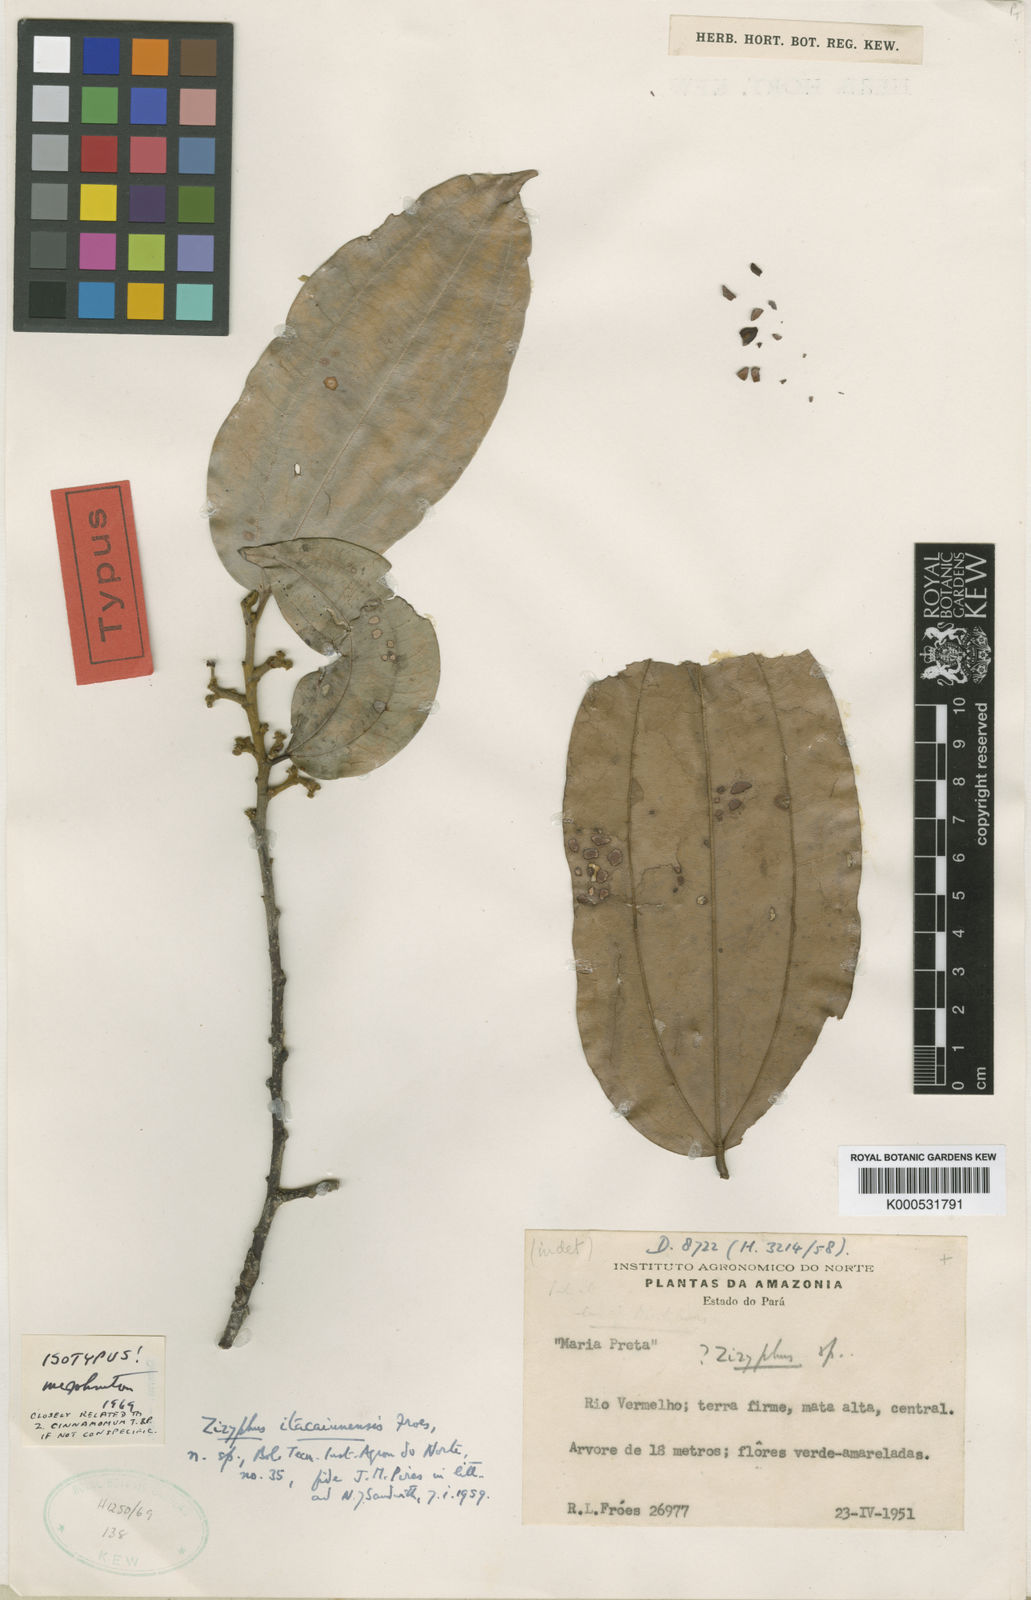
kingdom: Plantae
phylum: Tracheophyta
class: Magnoliopsida
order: Rosales
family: Rhamnaceae
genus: Sarcomphalus
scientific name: Sarcomphalus cinnamomum
